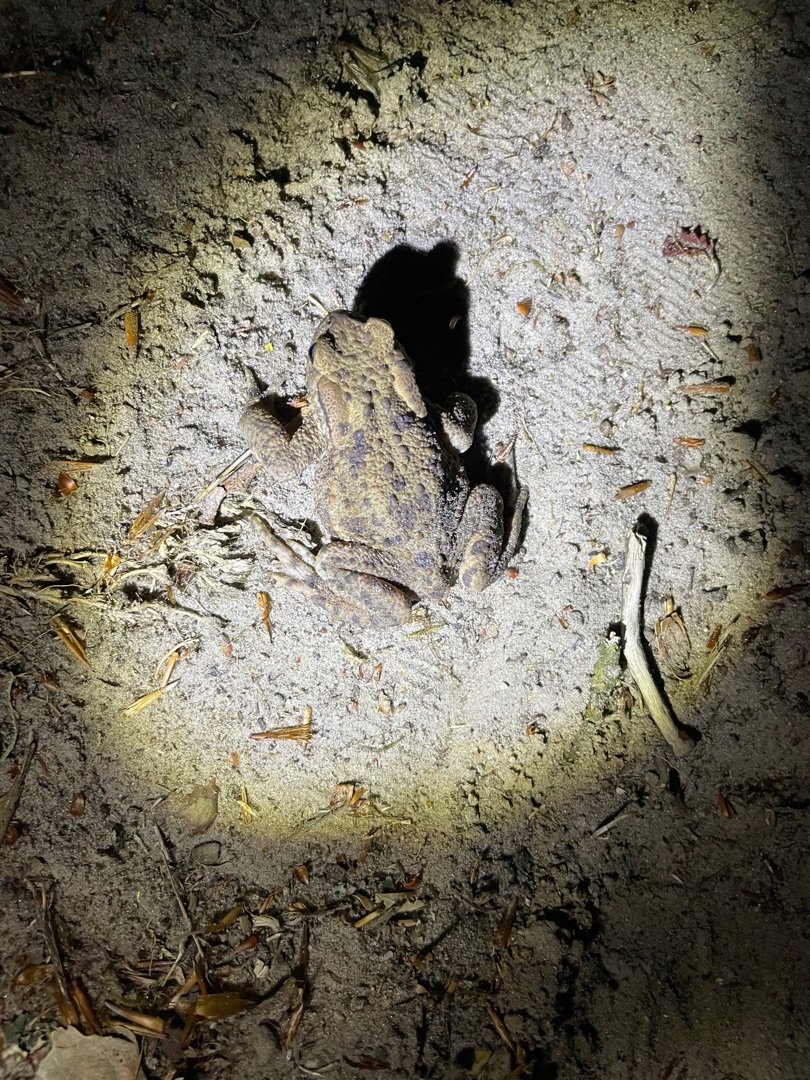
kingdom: Animalia
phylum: Chordata
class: Amphibia
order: Anura
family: Bufonidae
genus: Bufo
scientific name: Bufo bufo
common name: Skrubtudse
